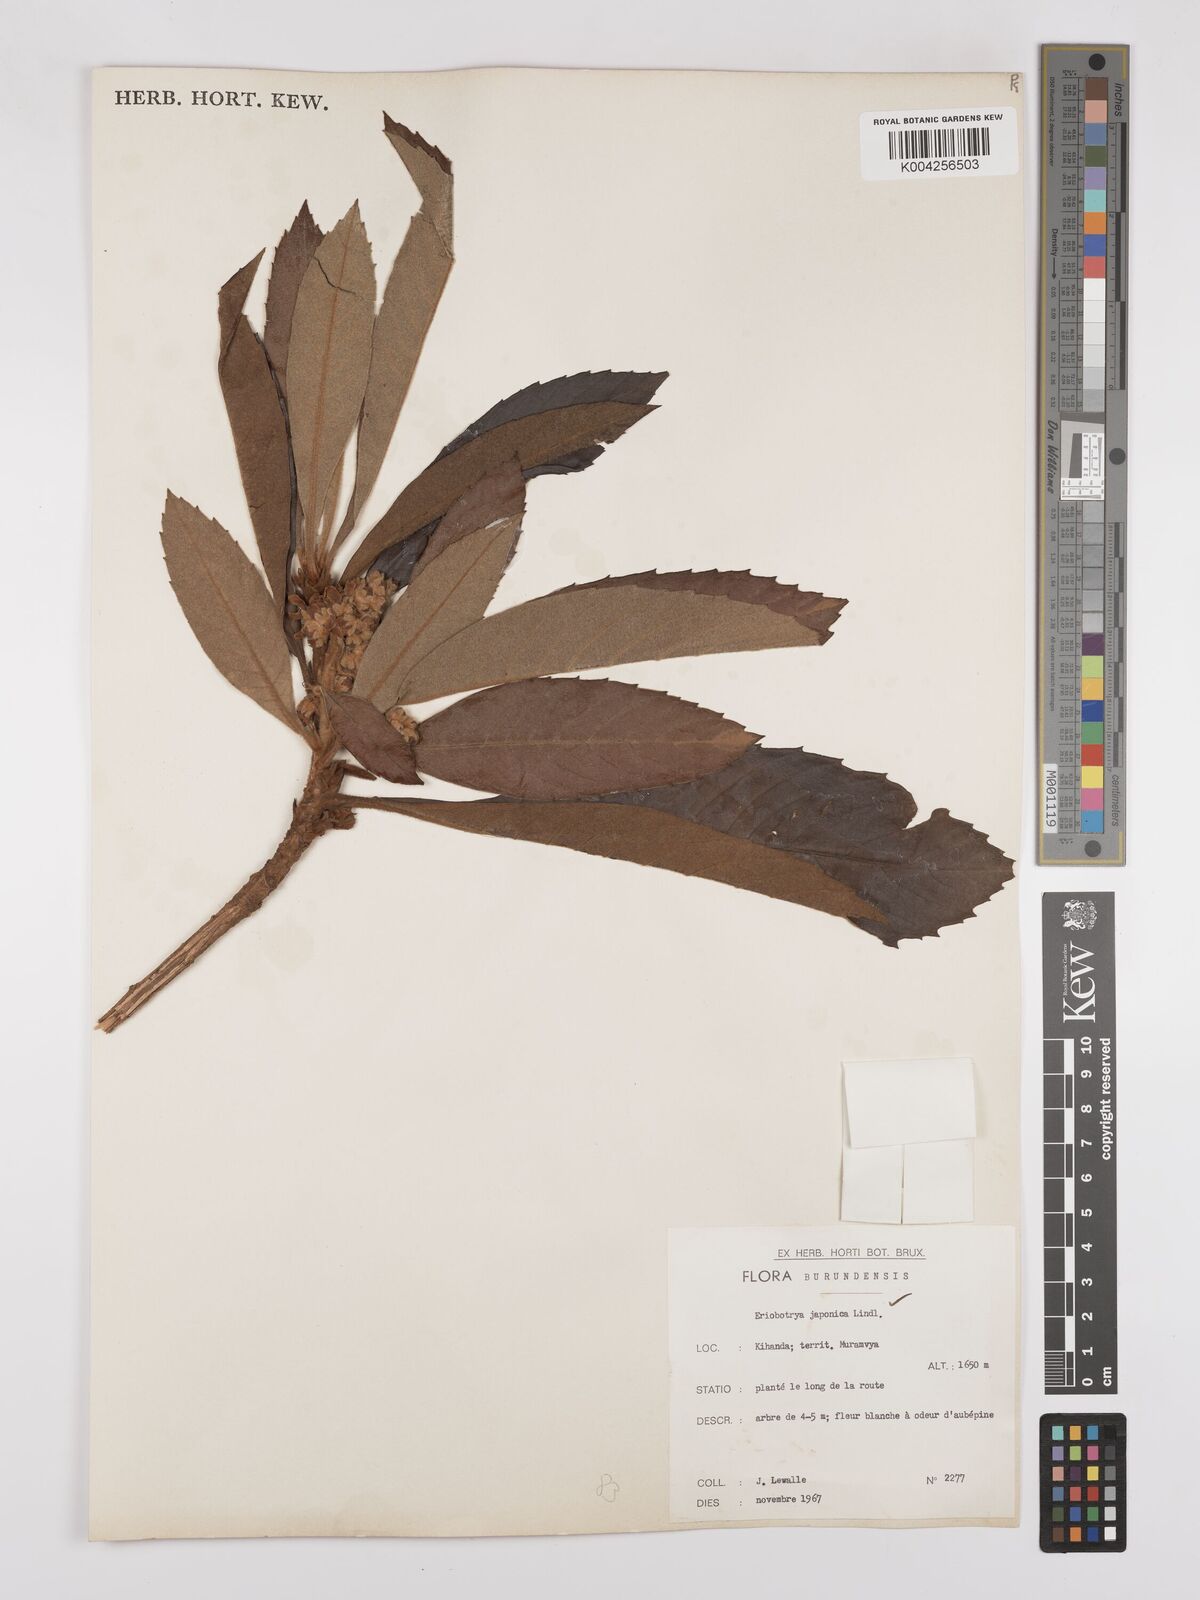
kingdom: Plantae
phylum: Tracheophyta
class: Magnoliopsida
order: Rosales
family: Rosaceae
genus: Rhaphiolepis
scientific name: Rhaphiolepis bibas
